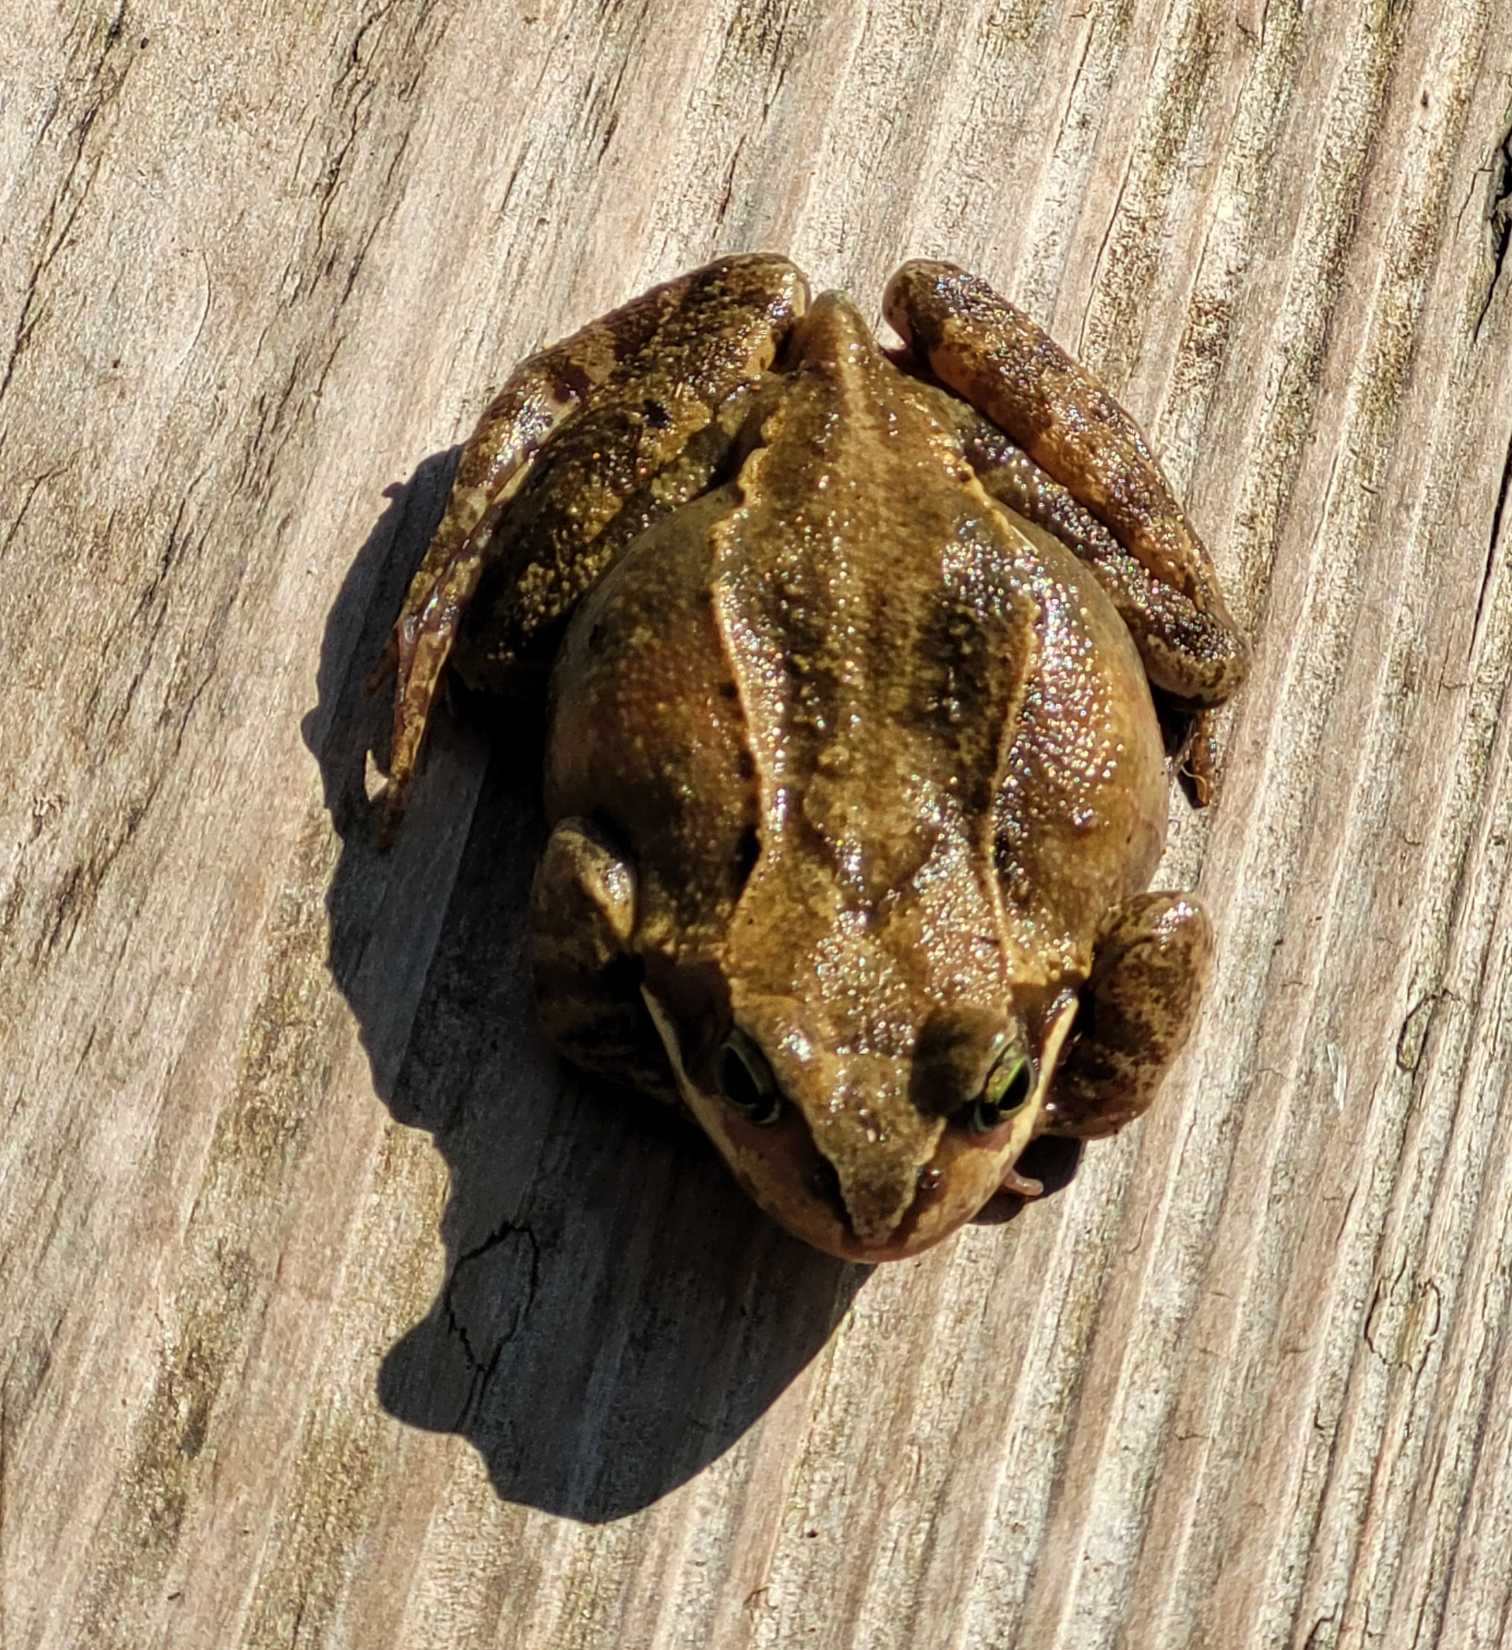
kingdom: Animalia
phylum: Chordata
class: Amphibia
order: Anura
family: Ranidae
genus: Rana
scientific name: Rana temporaria
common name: Butsnudet frø
